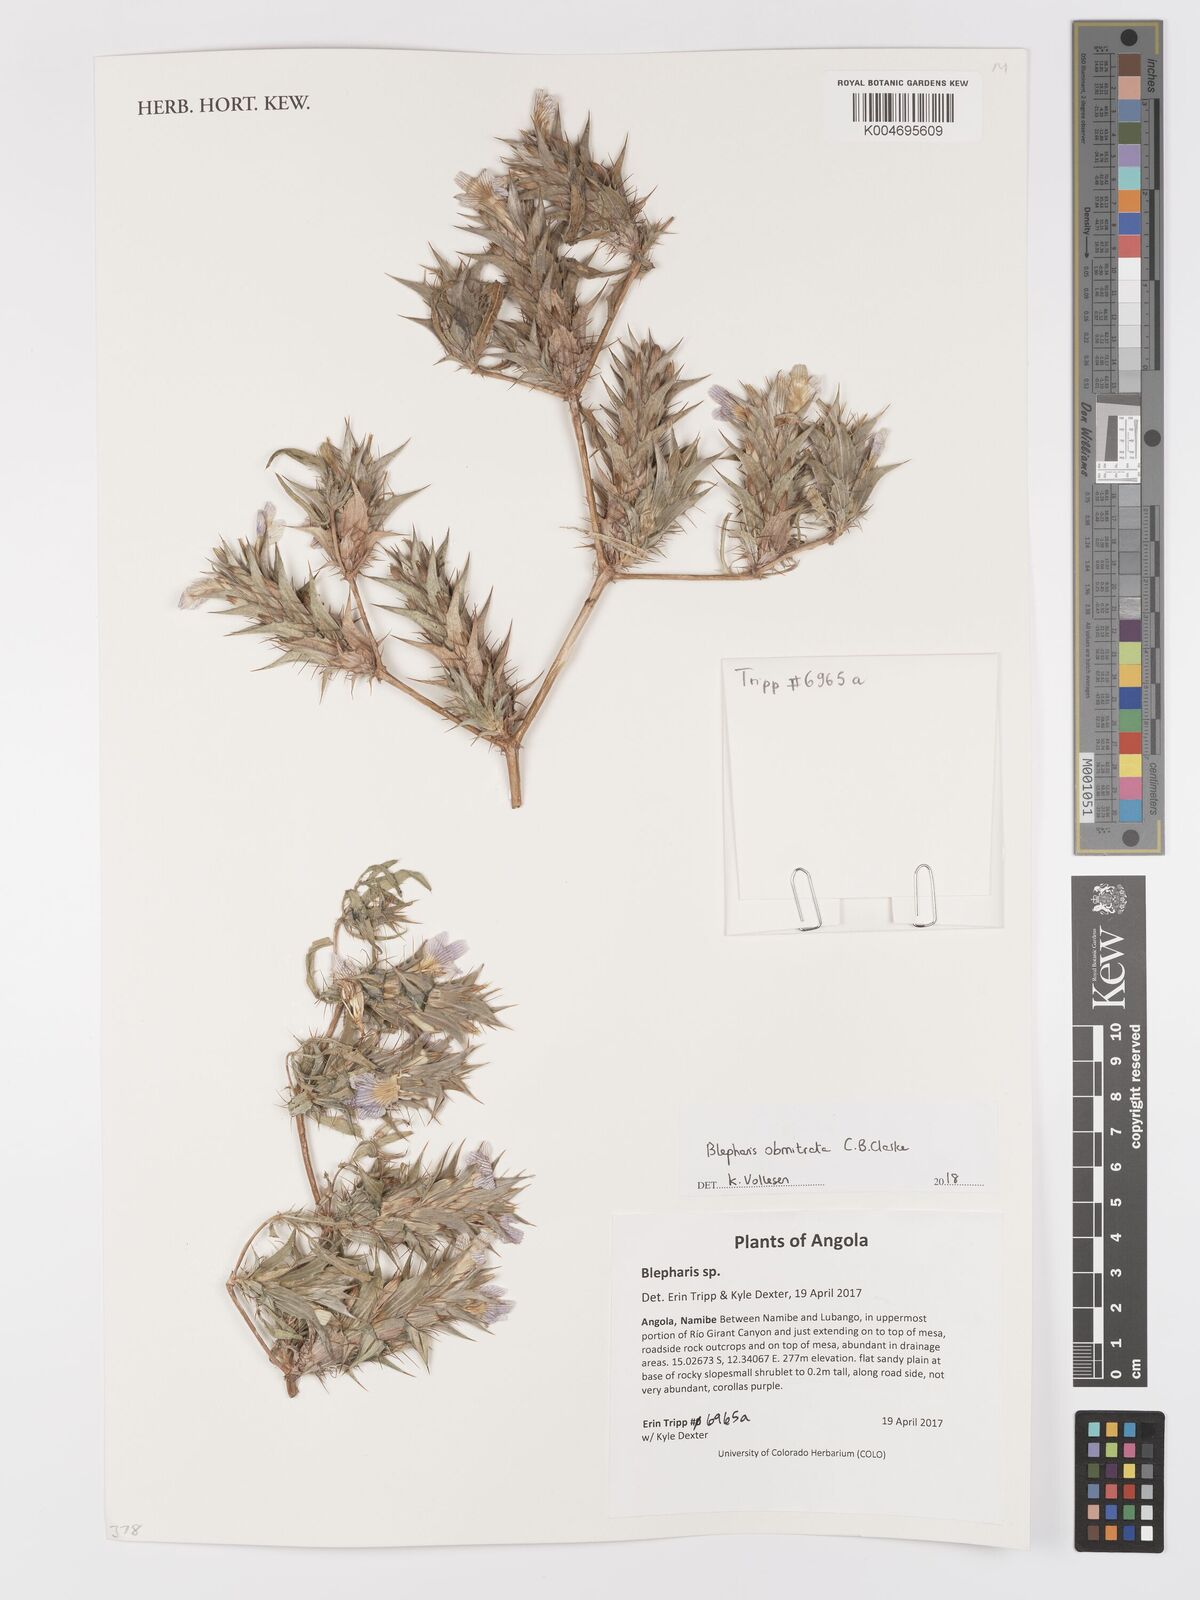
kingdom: Plantae
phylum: Tracheophyta
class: Magnoliopsida
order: Lamiales
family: Acanthaceae
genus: Blepharis
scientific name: Blepharis obmitrata
